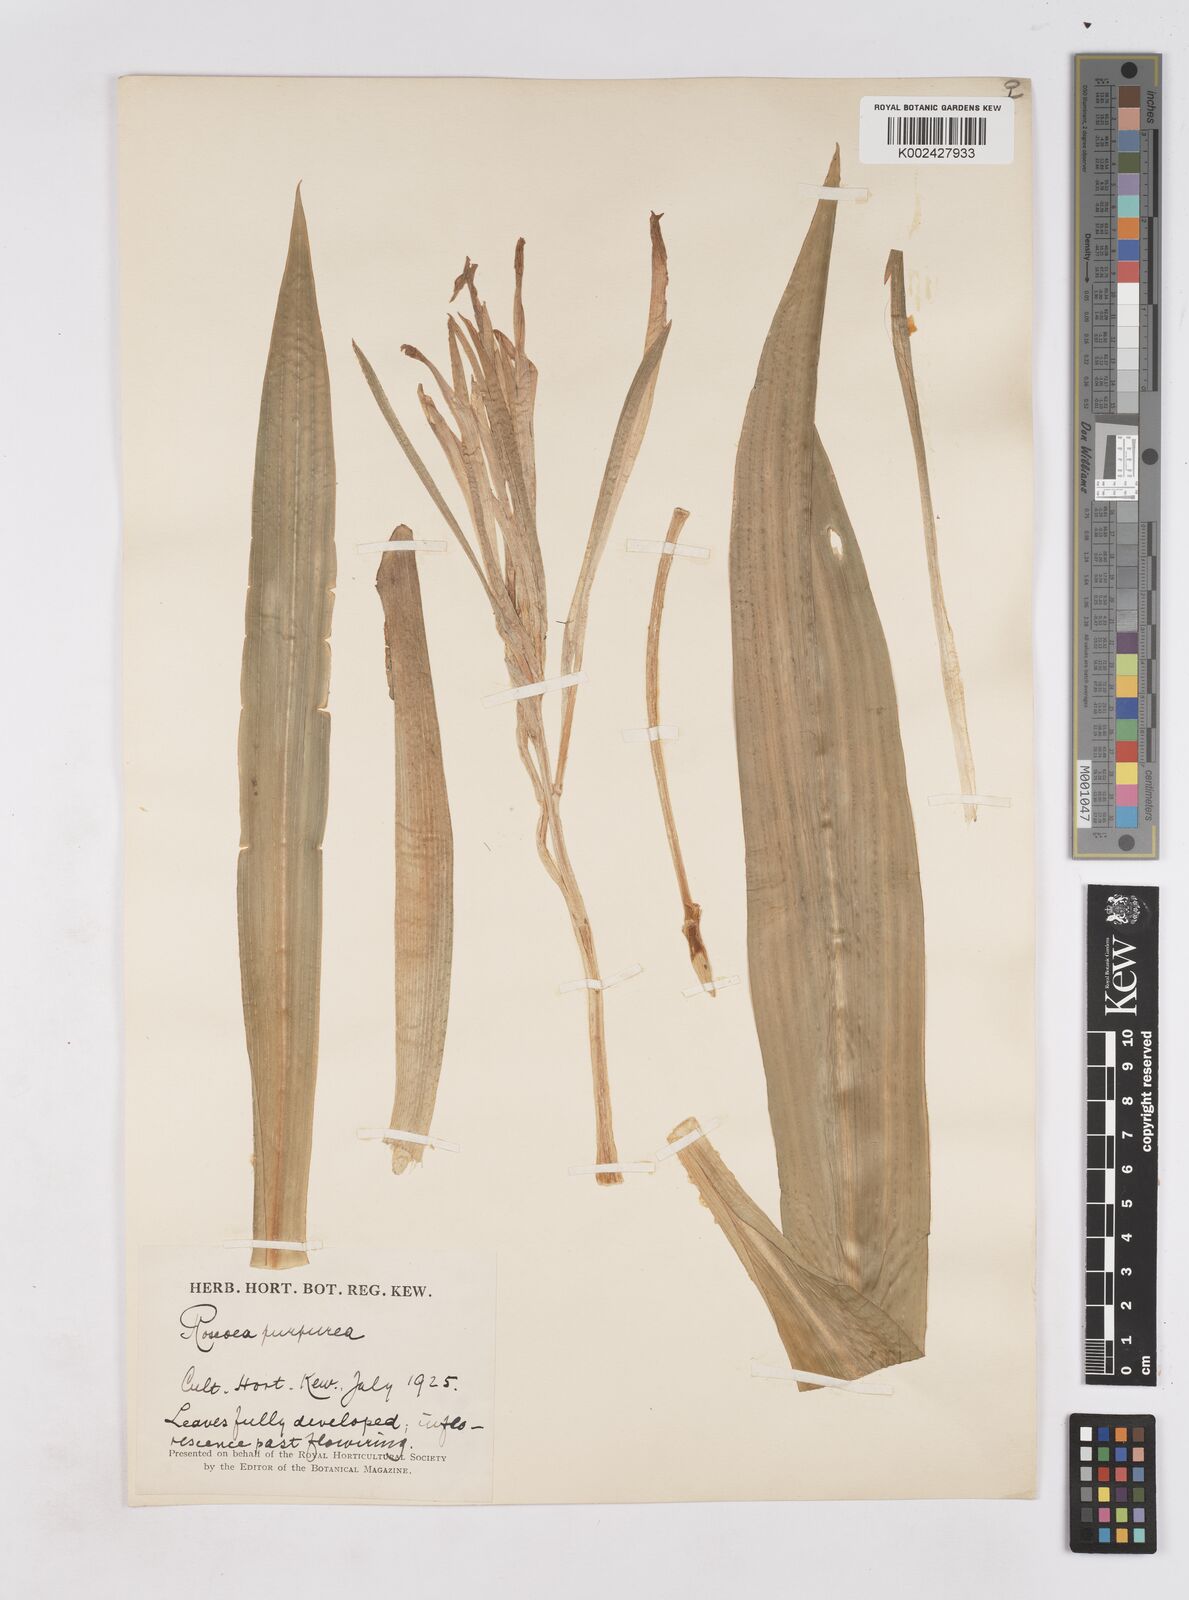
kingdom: Plantae
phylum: Tracheophyta
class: Liliopsida
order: Zingiberales
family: Zingiberaceae
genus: Roscoea
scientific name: Roscoea humeana
